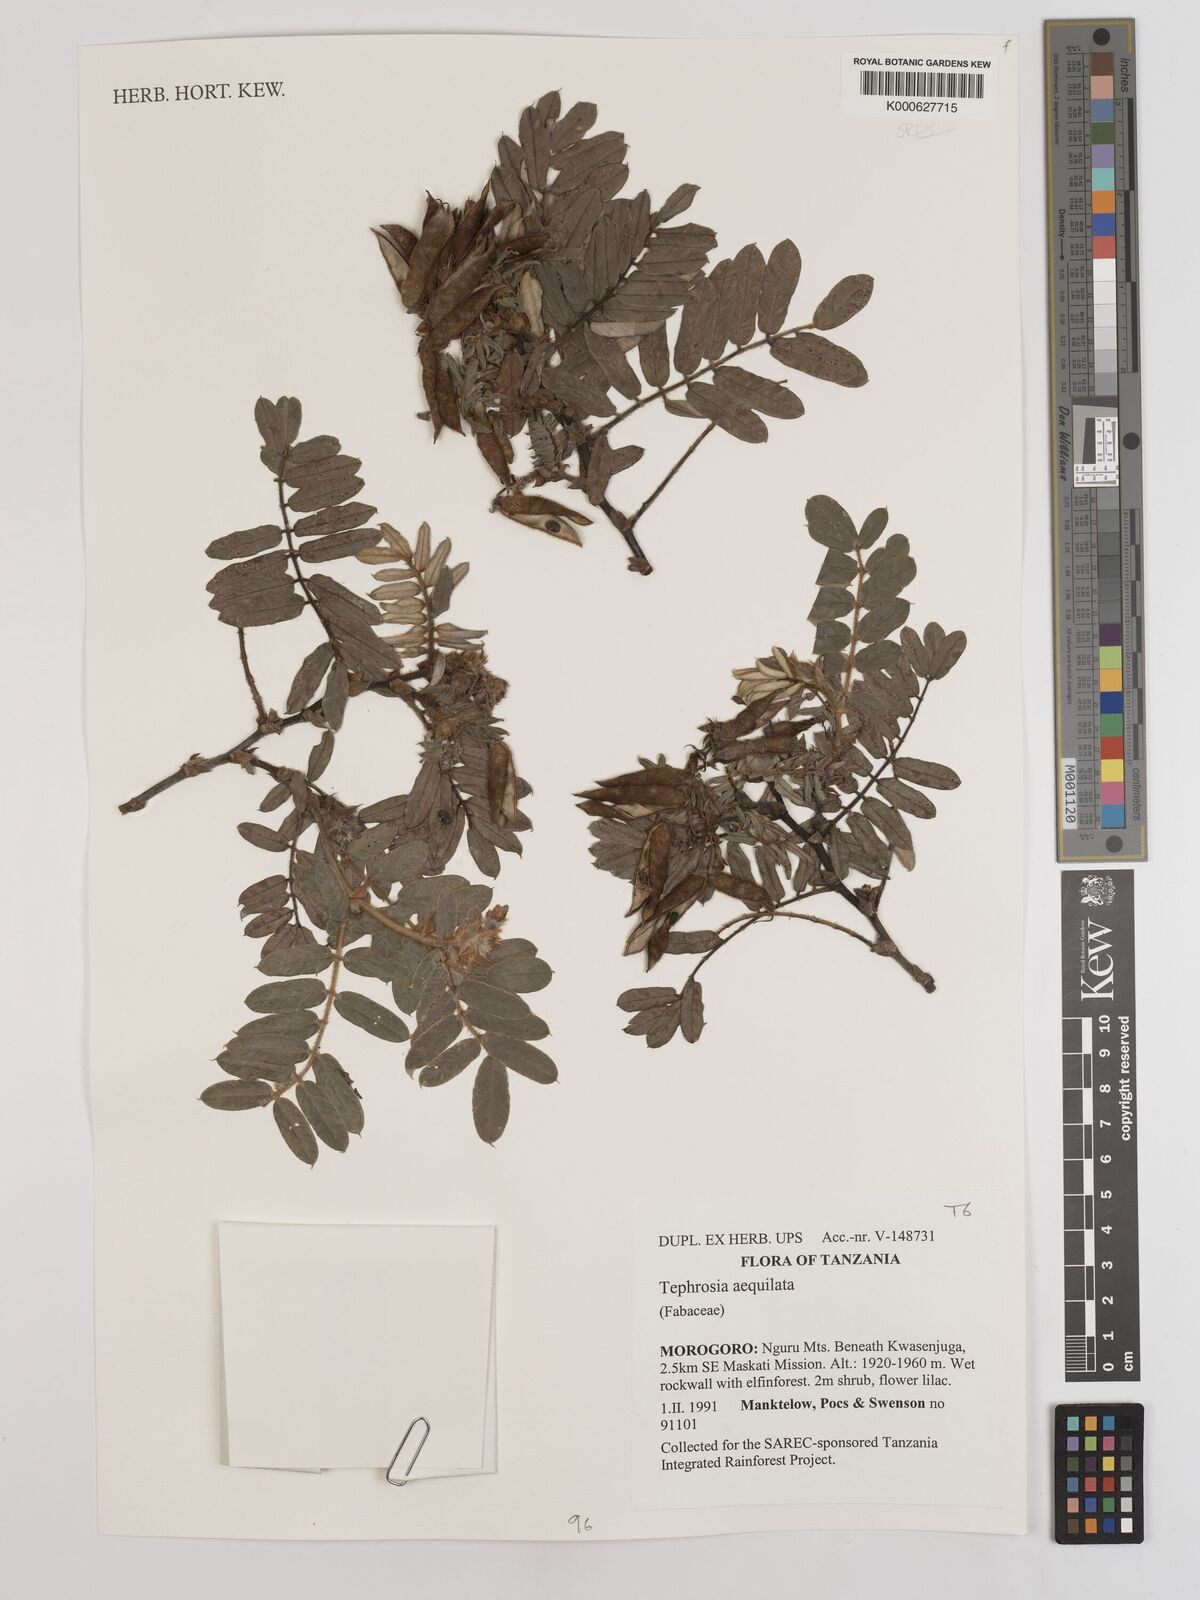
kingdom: Plantae
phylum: Tracheophyta
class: Magnoliopsida
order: Fabales
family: Fabaceae
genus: Tephrosia
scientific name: Tephrosia aequilata
